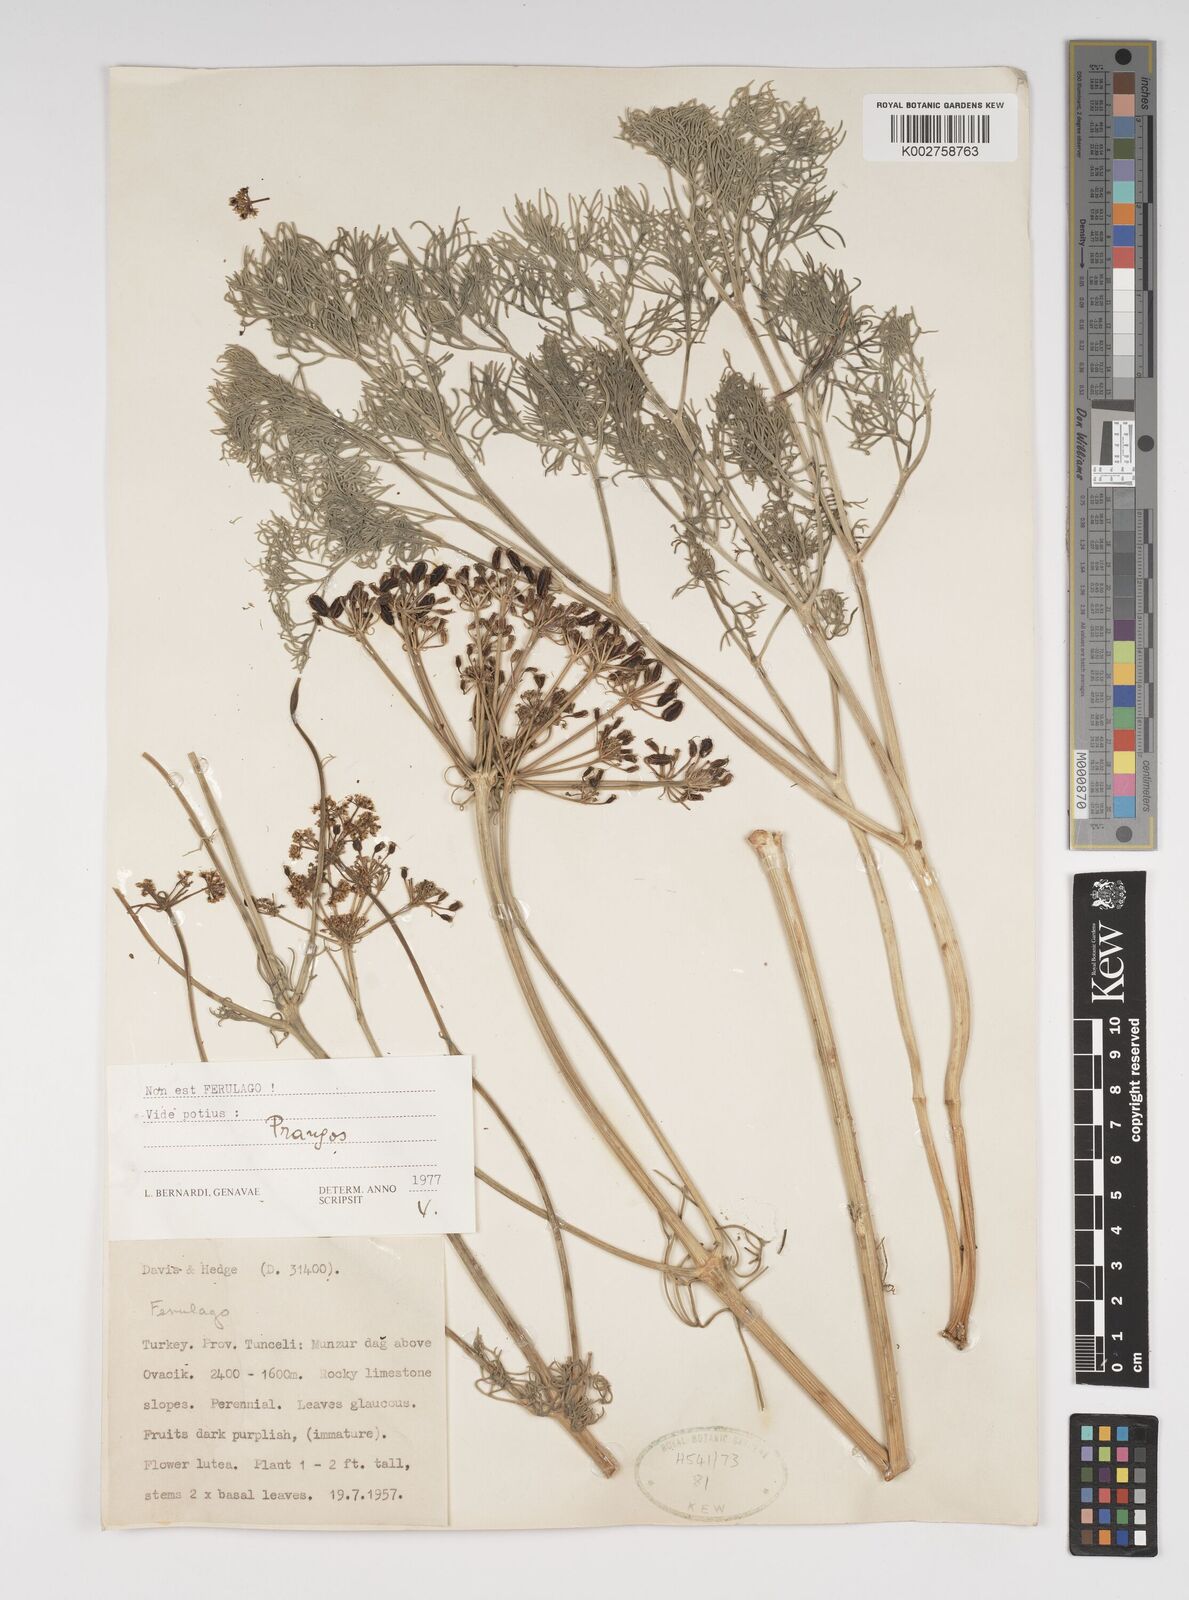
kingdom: Plantae
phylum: Tracheophyta
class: Magnoliopsida
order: Apiales
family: Apiaceae
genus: Cachrys
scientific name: Cachrys
